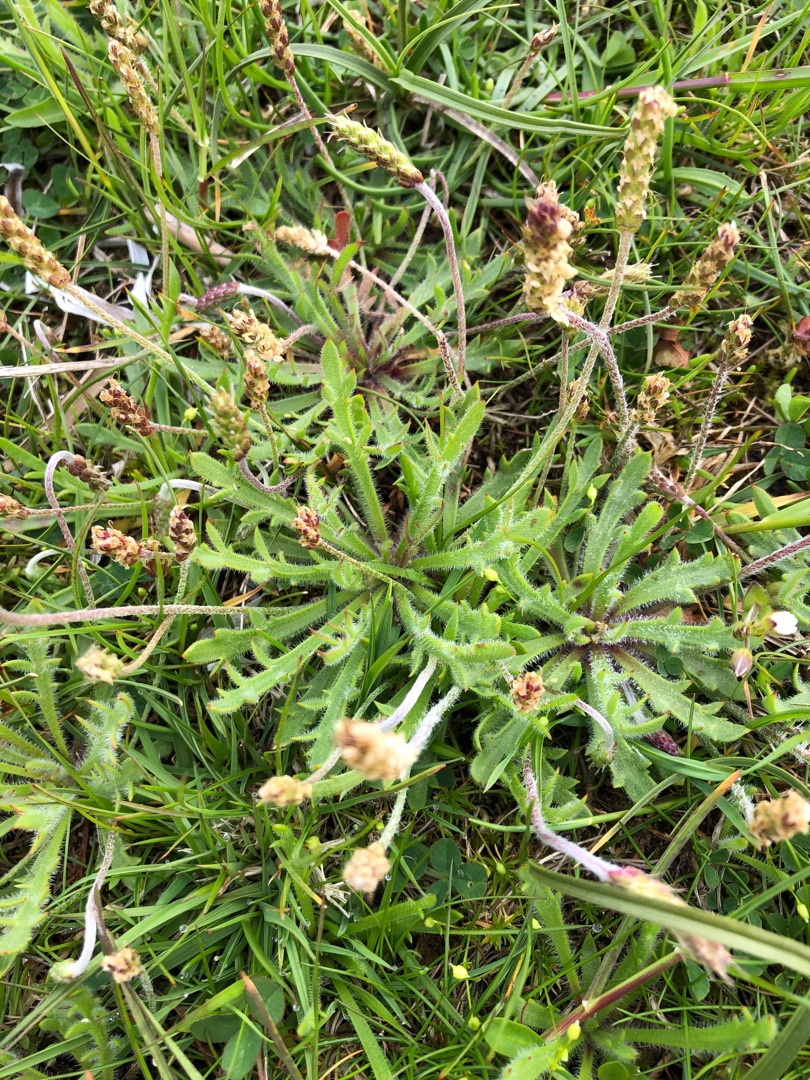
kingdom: Plantae
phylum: Tracheophyta
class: Magnoliopsida
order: Lamiales
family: Plantaginaceae
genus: Plantago
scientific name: Plantago coronopus
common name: Fliget vejbred
